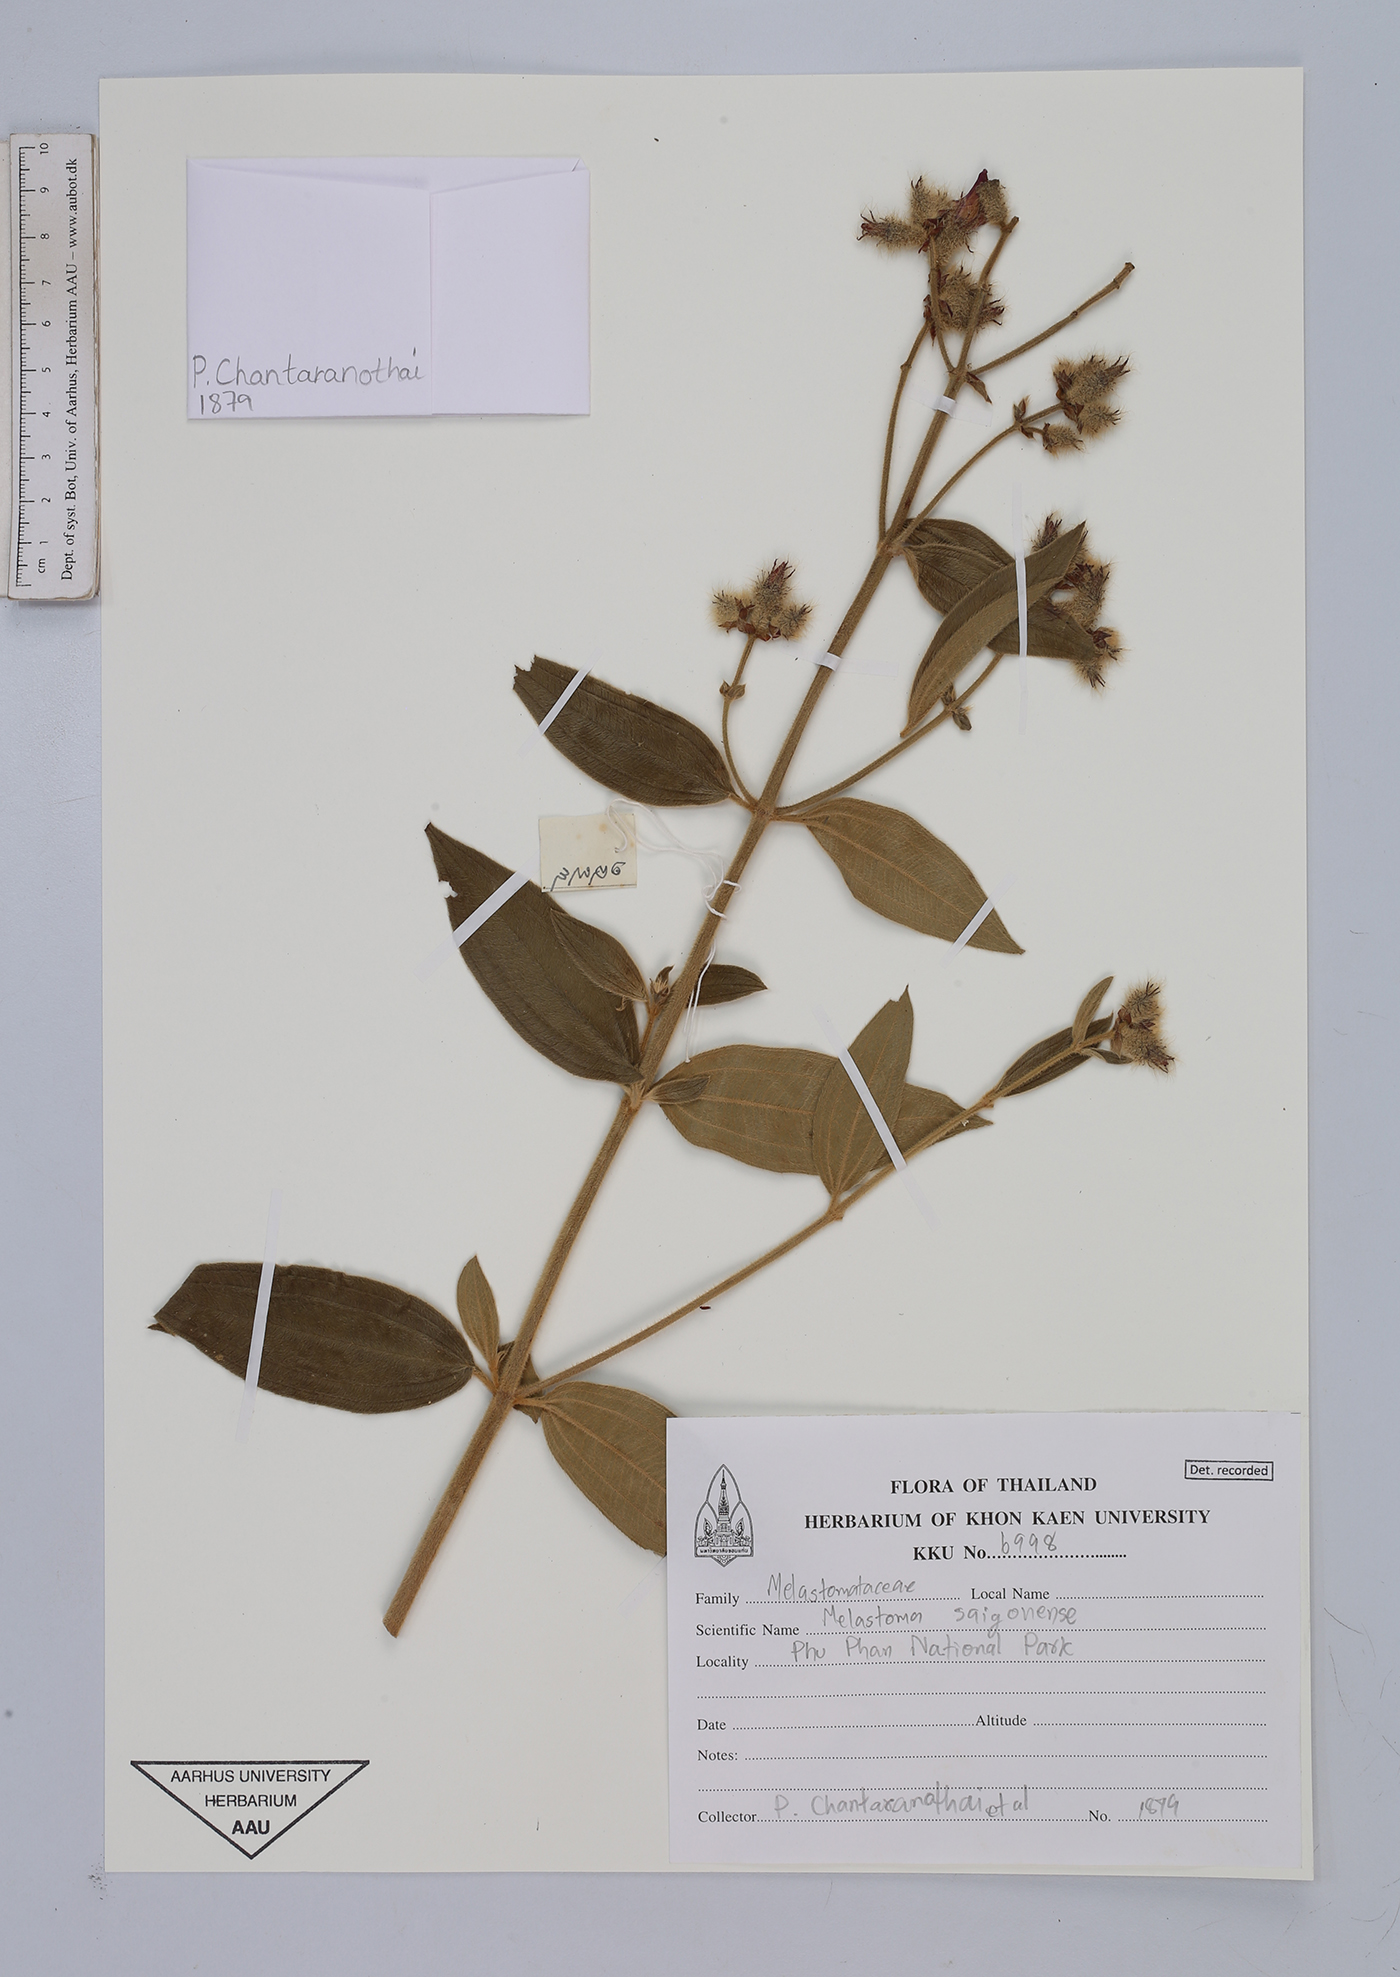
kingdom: Plantae
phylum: Tracheophyta
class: Magnoliopsida
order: Myrtales
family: Melastomataceae
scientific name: Melastomataceae
